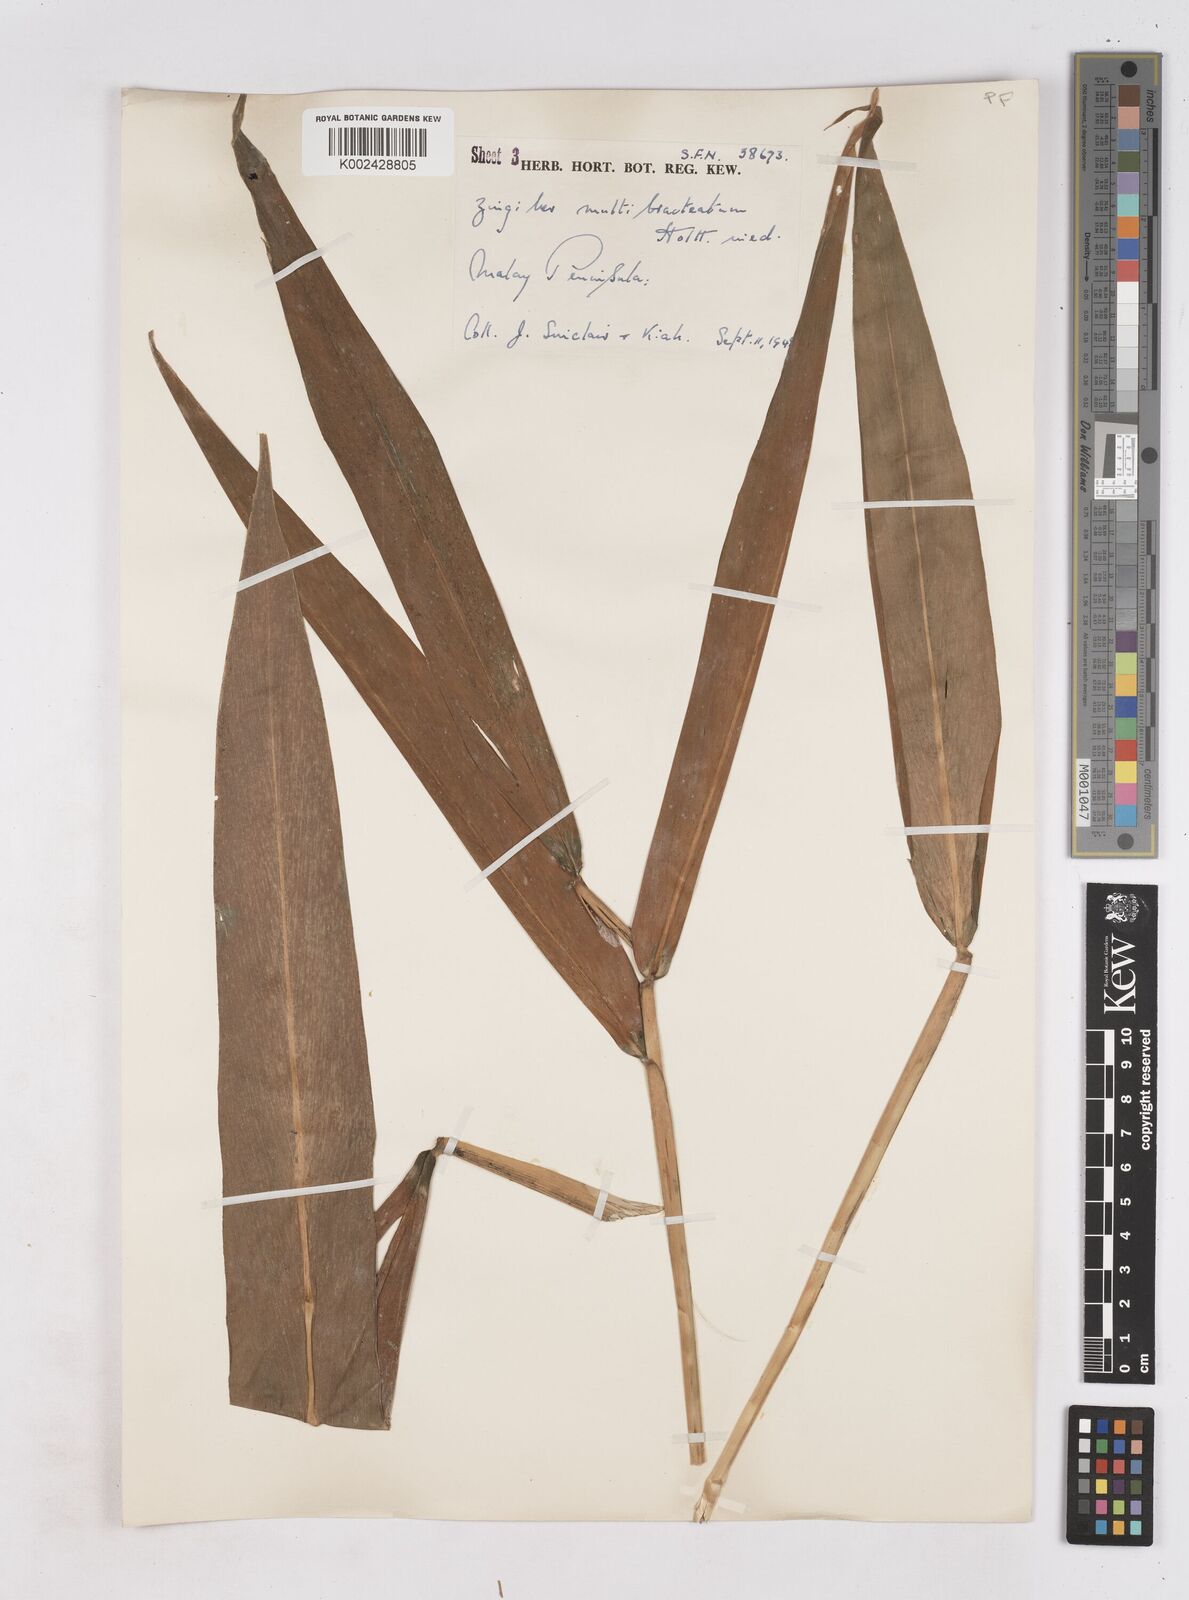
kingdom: Plantae
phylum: Tracheophyta
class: Liliopsida
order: Zingiberales
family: Zingiberaceae
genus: Zingiber
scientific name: Zingiber multibracteatum
